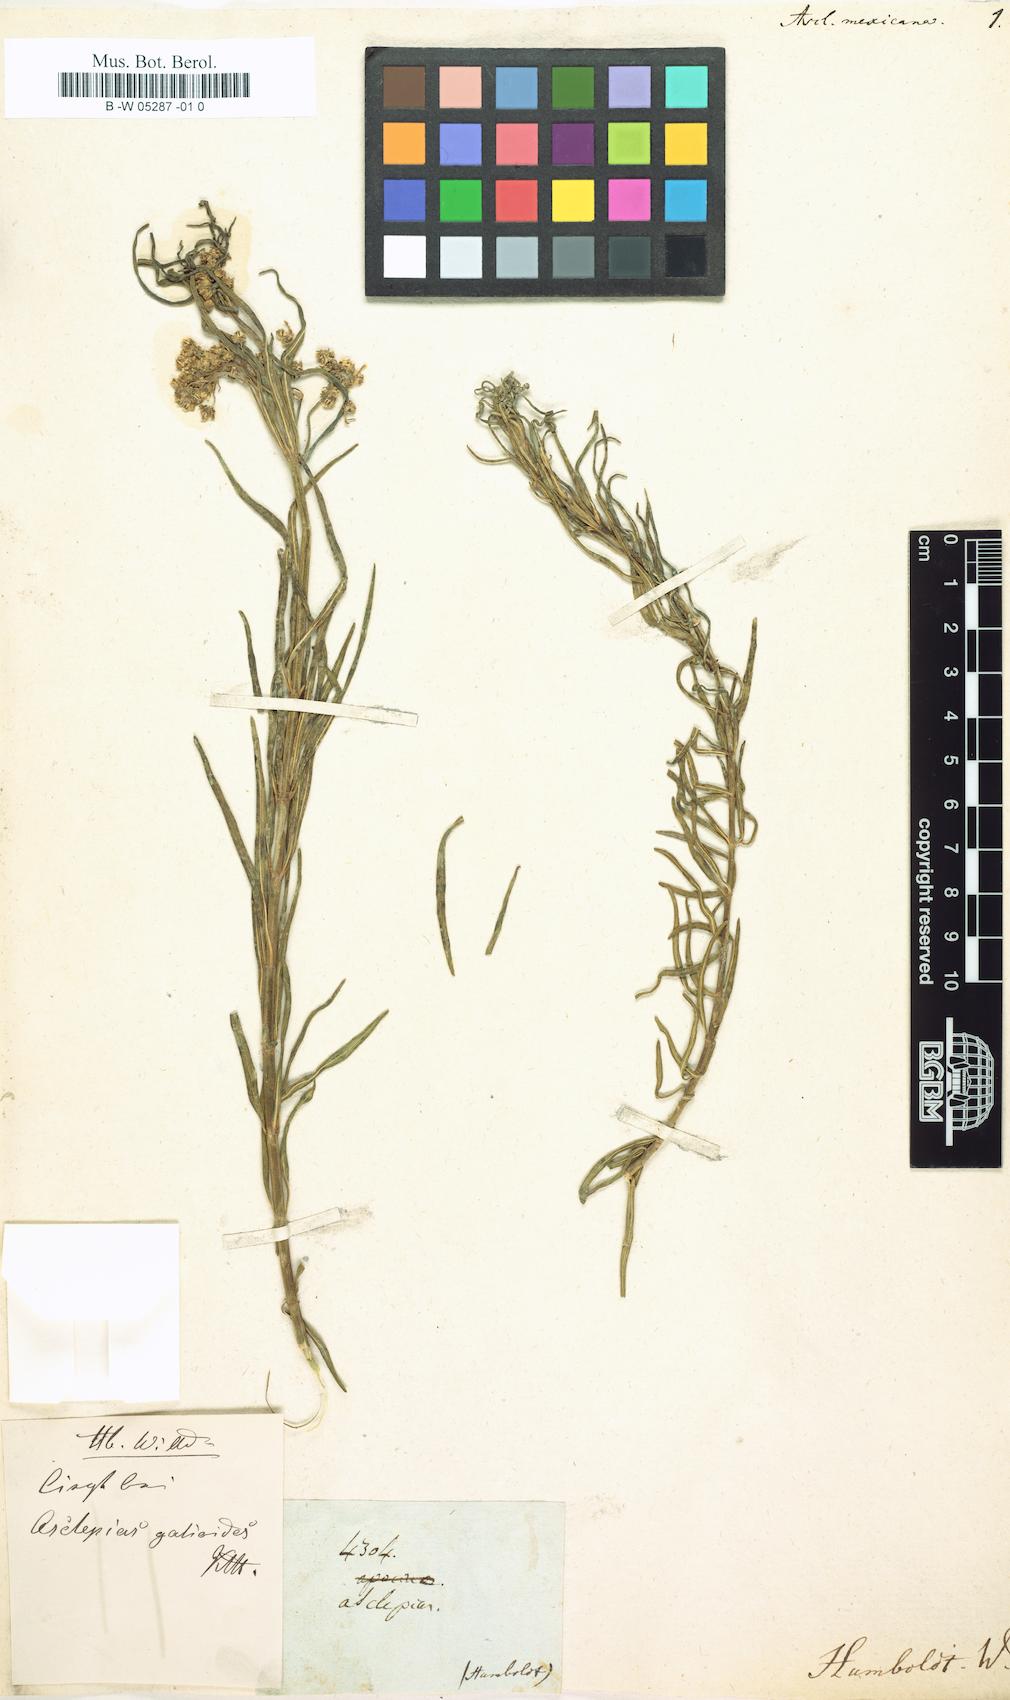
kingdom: Plantae
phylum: Tracheophyta
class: Magnoliopsida
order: Gentianales
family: Apocynaceae
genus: Asclepias
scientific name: Asclepias mexicana
